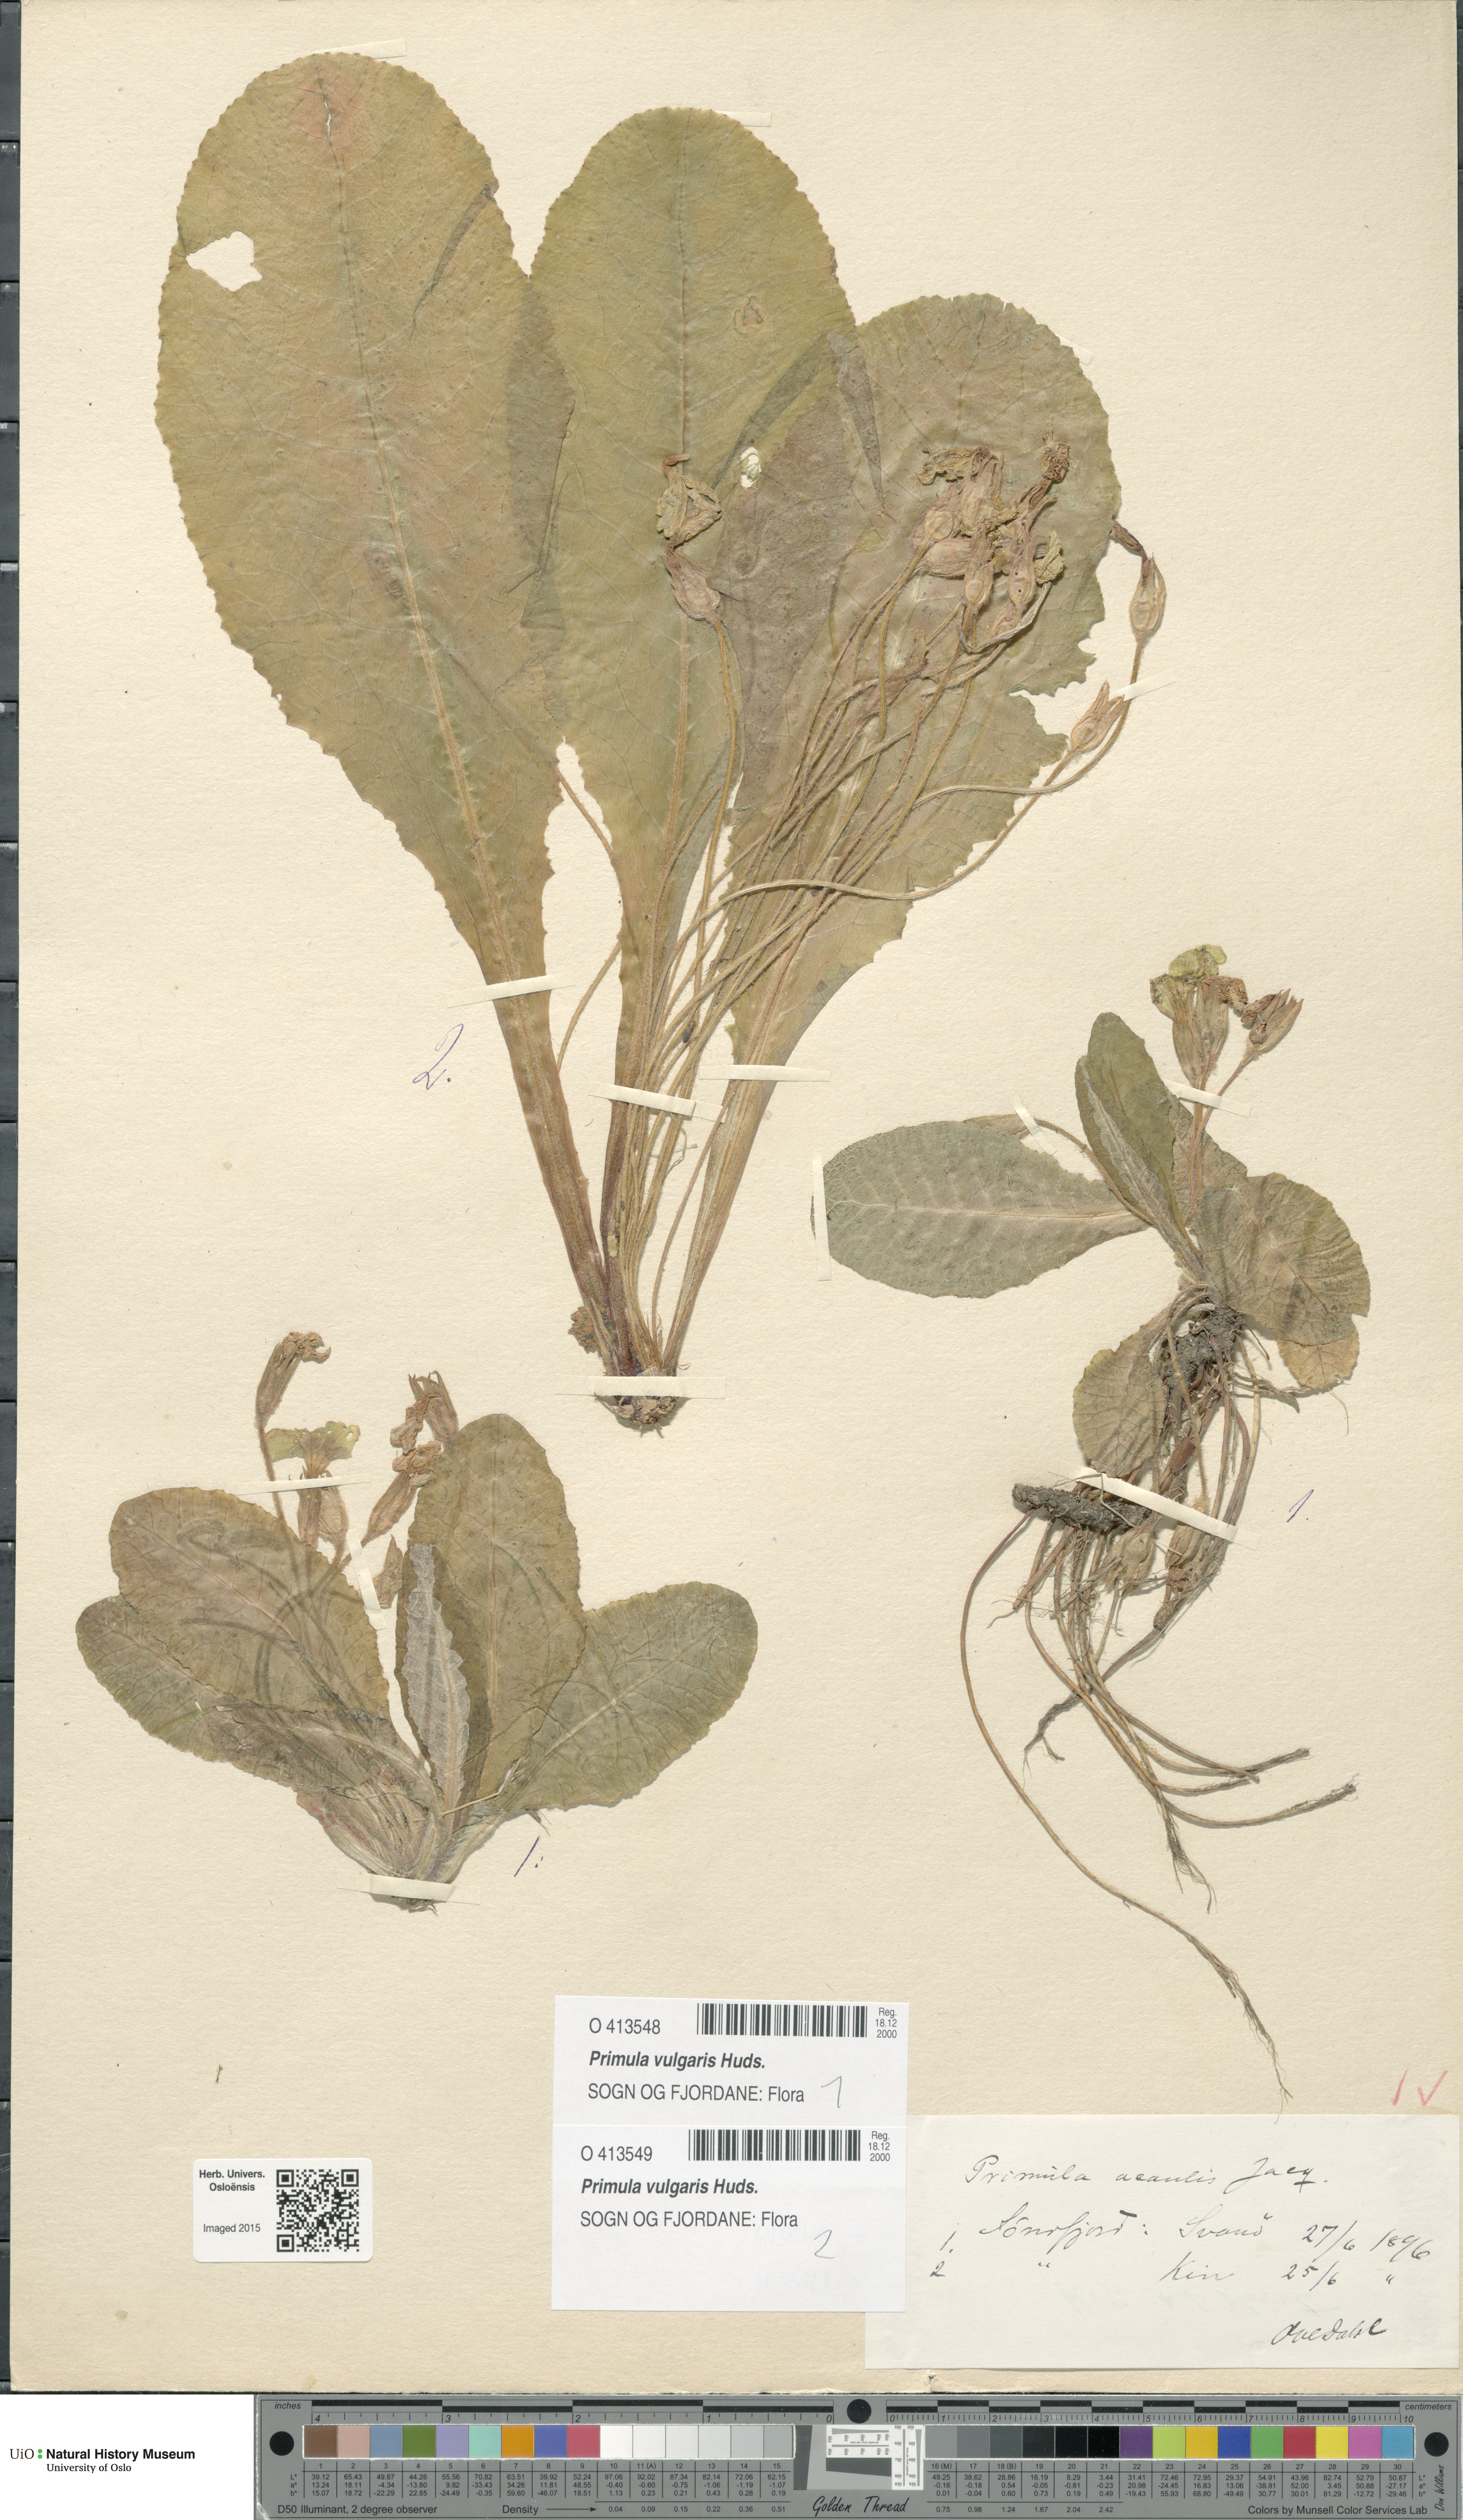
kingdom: Plantae
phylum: Tracheophyta
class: Magnoliopsida
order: Ericales
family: Primulaceae
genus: Primula
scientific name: Primula vulgaris
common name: Primrose
